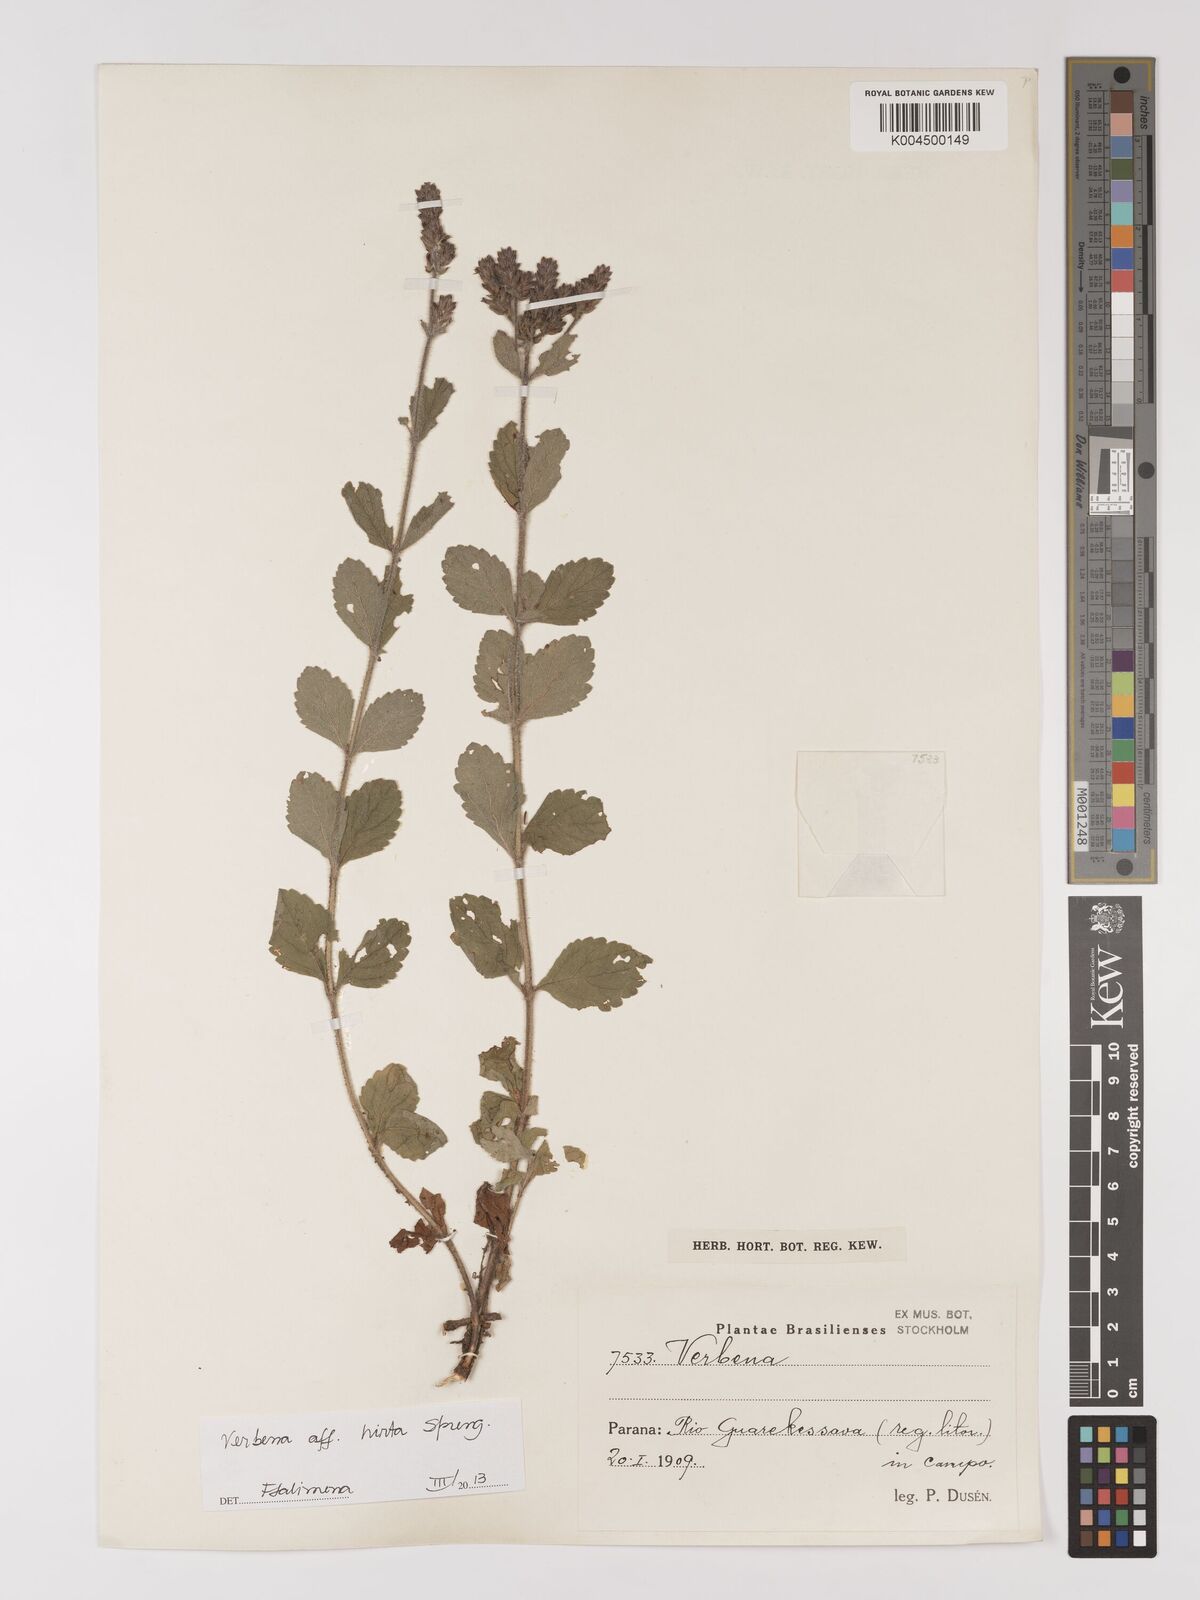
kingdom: Plantae
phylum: Tracheophyta
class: Magnoliopsida
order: Lamiales
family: Verbenaceae
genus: Verbena
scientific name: Verbena hirta
